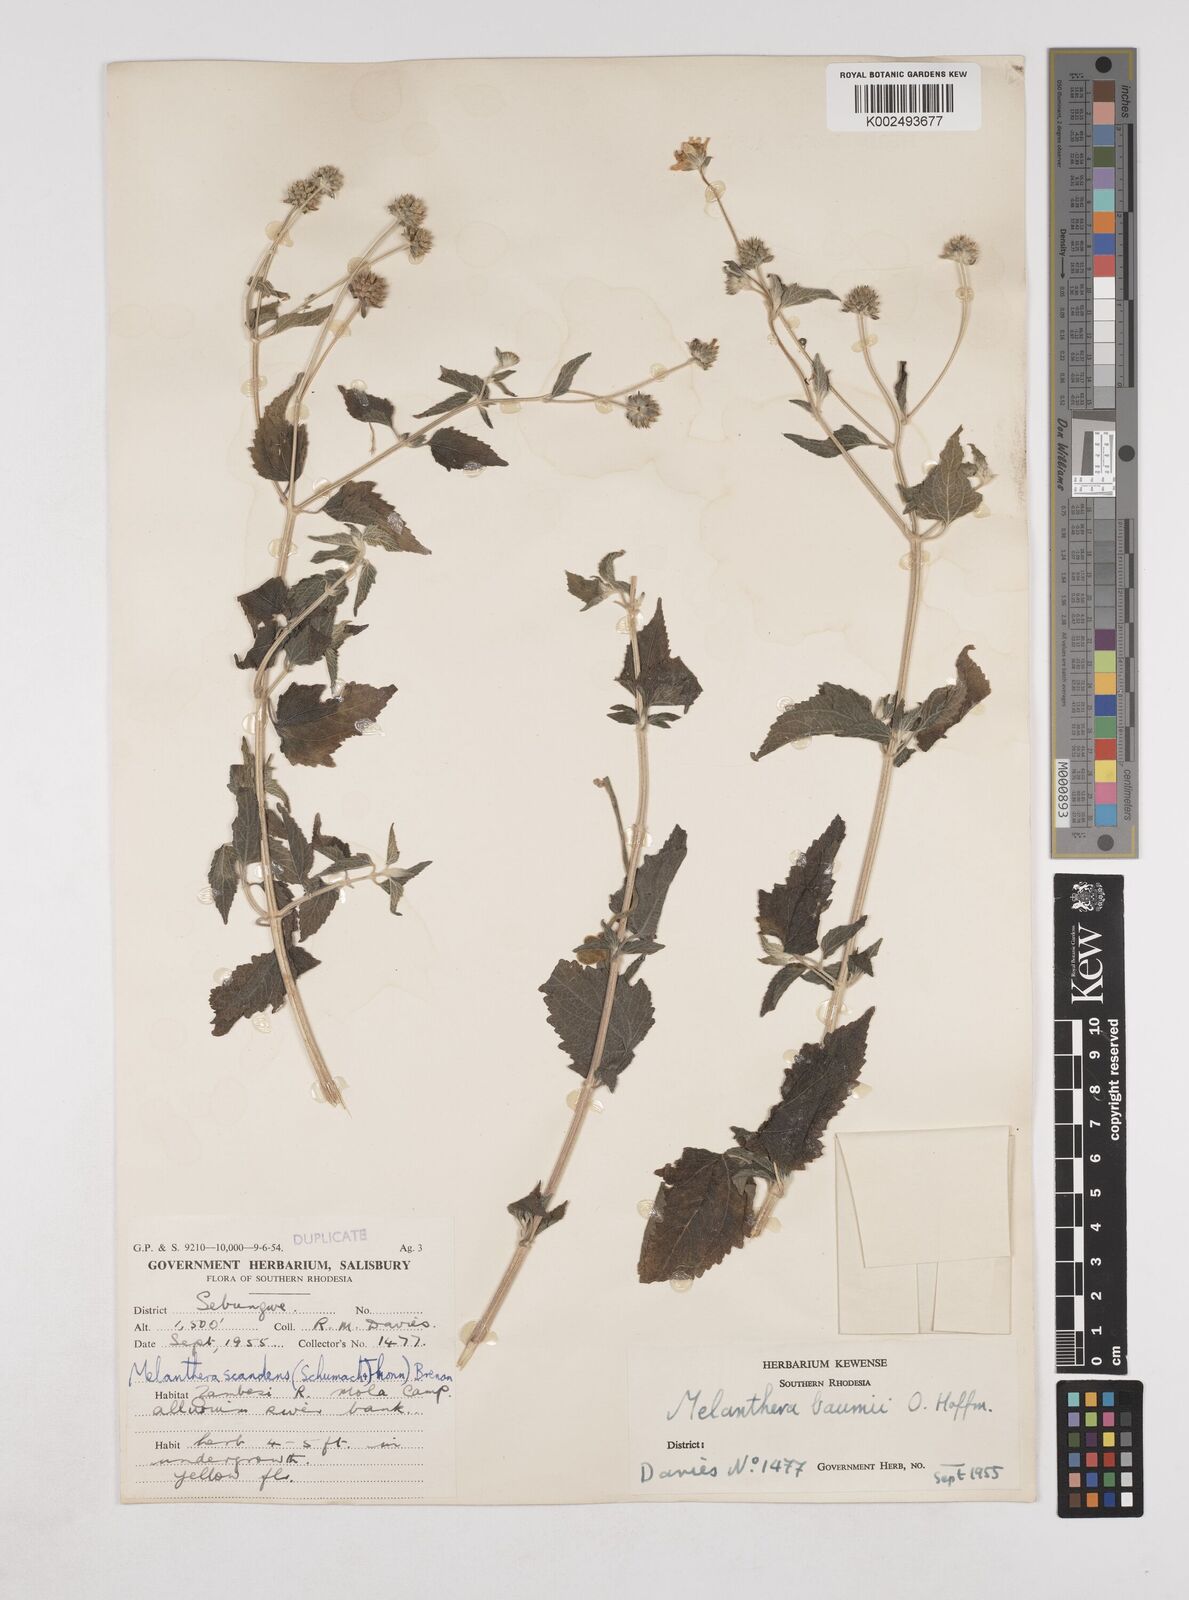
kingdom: Plantae
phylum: Tracheophyta
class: Magnoliopsida
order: Asterales
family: Asteraceae
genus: Lipotriche
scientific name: Lipotriche marlothiana
